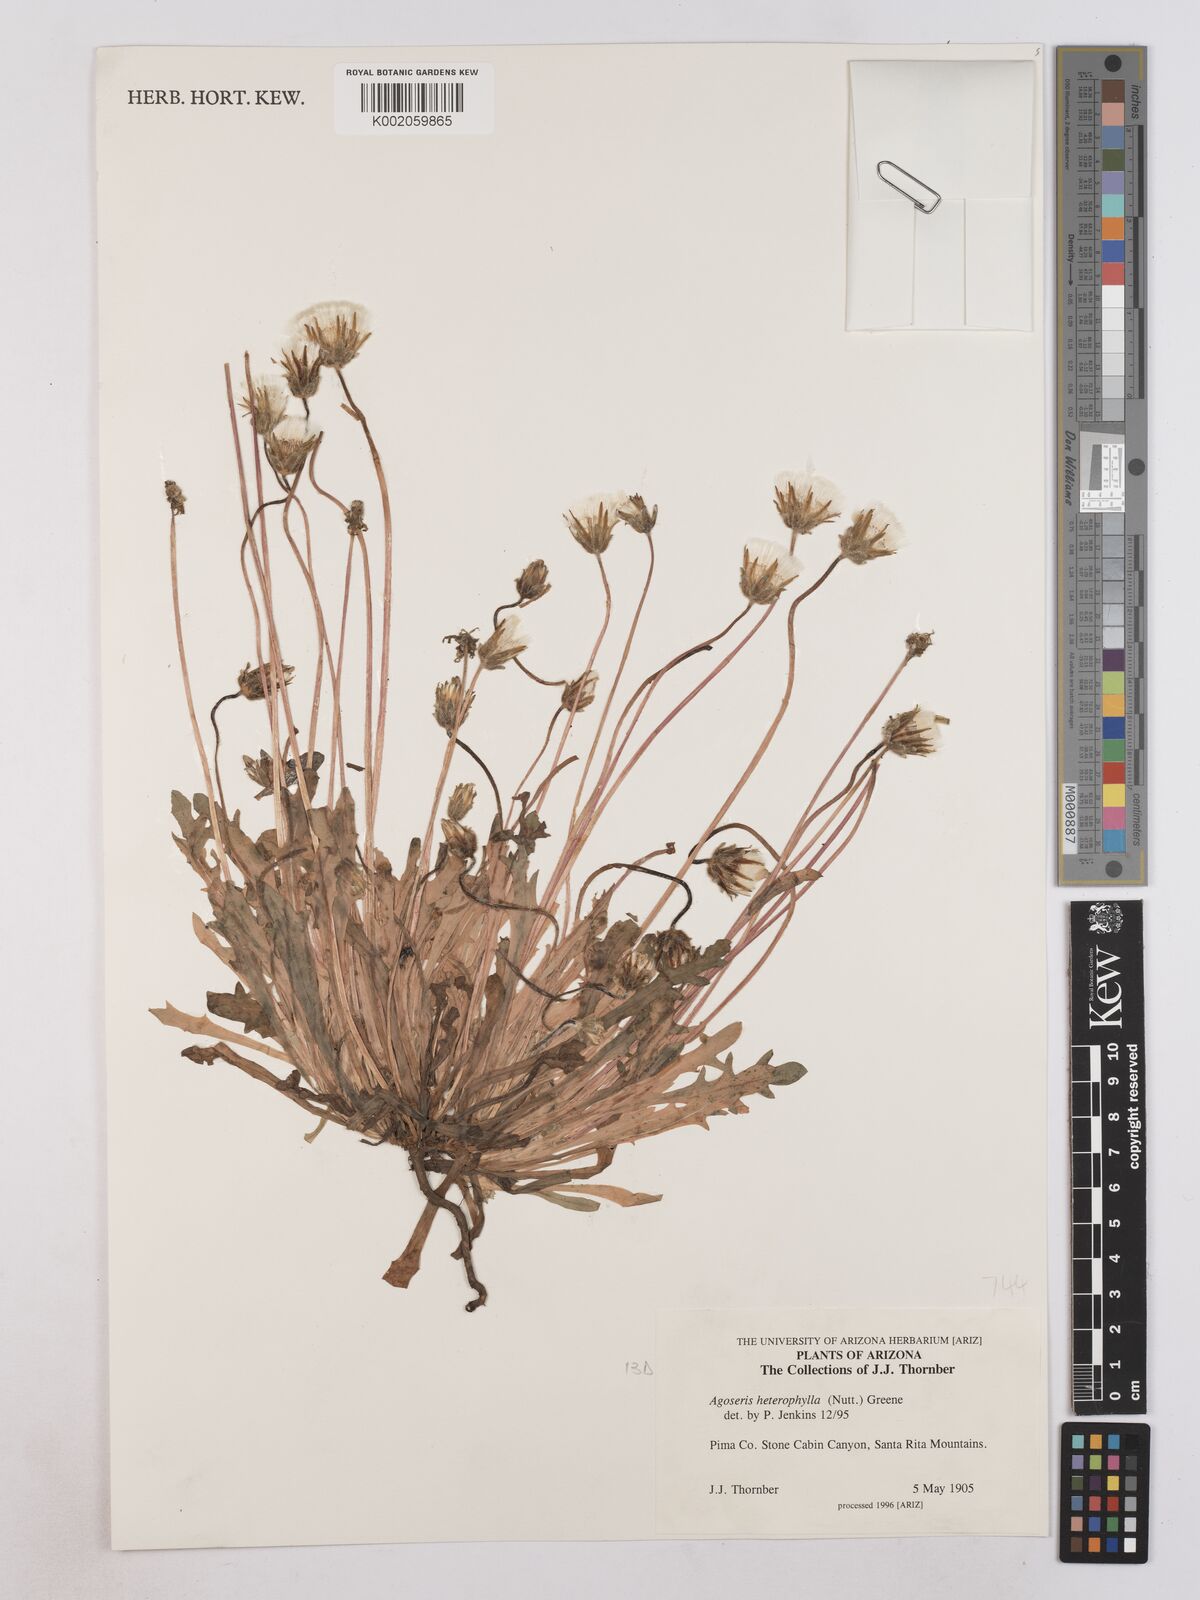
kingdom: Plantae
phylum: Tracheophyta
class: Magnoliopsida
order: Asterales
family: Asteraceae
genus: Agoseris
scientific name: Agoseris heterophylla
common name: Annual agoseris
